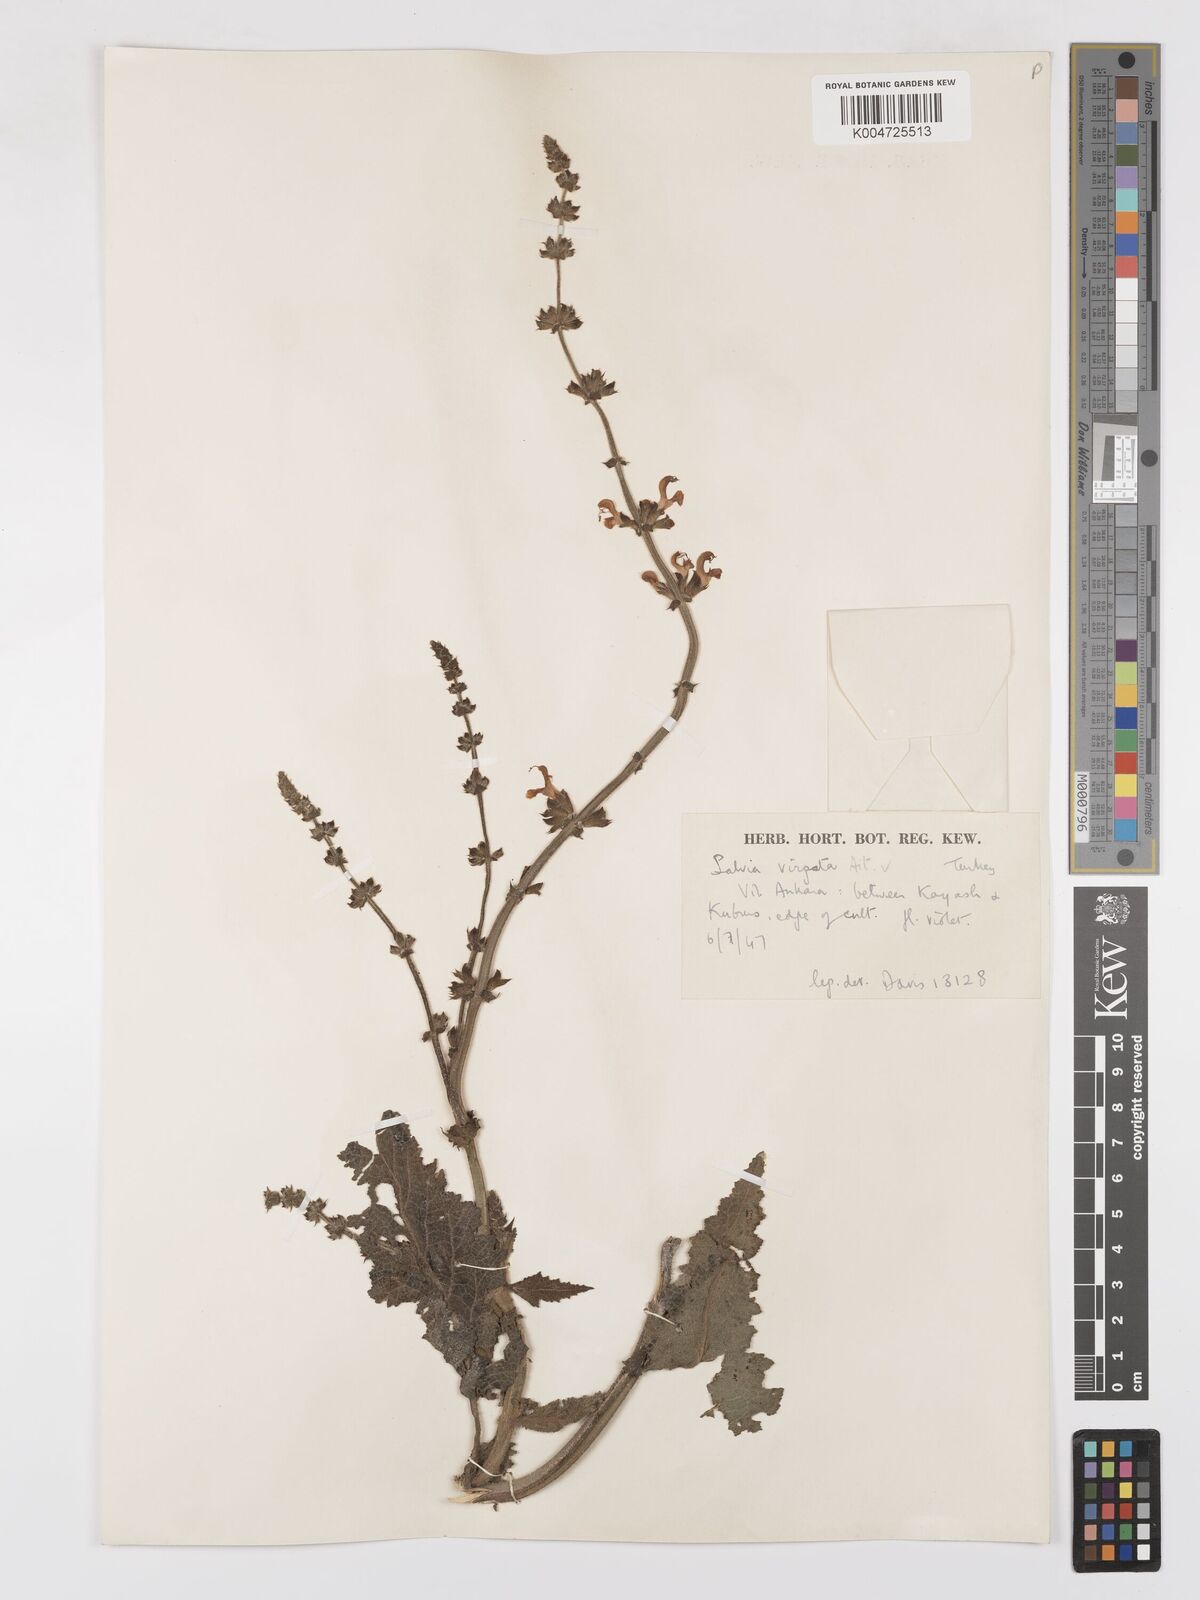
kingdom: Plantae
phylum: Tracheophyta
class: Magnoliopsida
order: Lamiales
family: Lamiaceae
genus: Salvia
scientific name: Salvia
